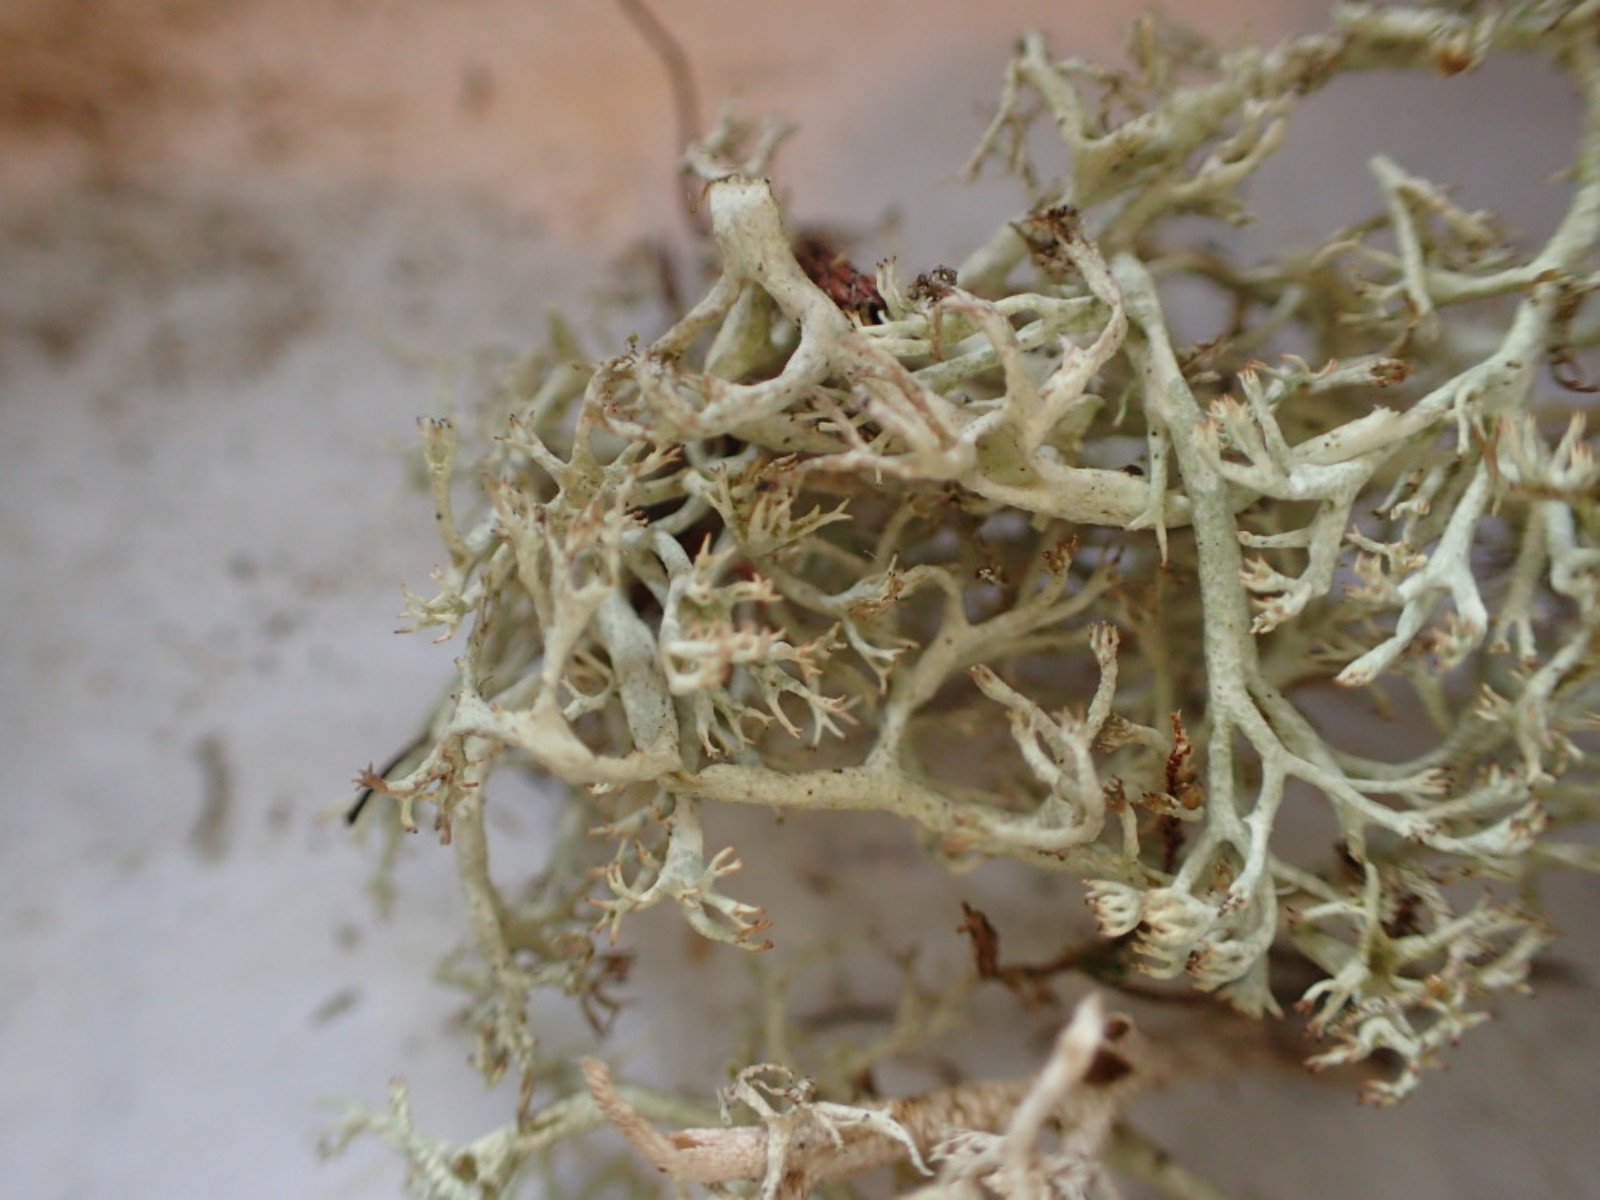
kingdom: Fungi
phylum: Ascomycota
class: Lecanoromycetes
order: Lecanorales
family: Cladoniaceae
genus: Cladonia
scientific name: Cladonia arbuscula
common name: gulhvid rensdyrlav
